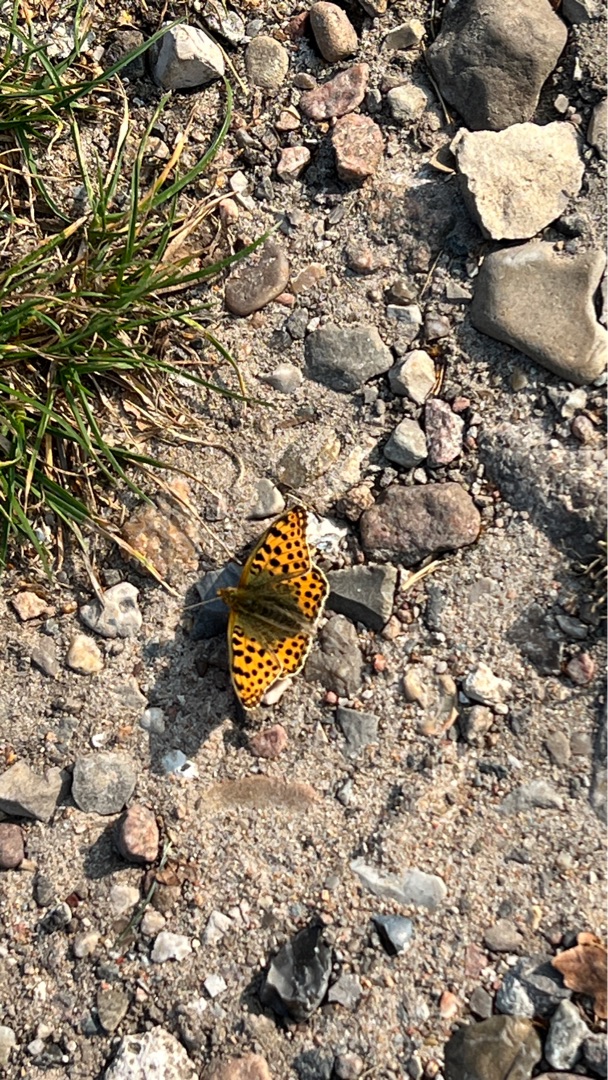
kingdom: Animalia
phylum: Arthropoda
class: Insecta
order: Lepidoptera
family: Nymphalidae
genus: Issoria
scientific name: Issoria lathonia
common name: Storplettet perlemorsommerfugl
